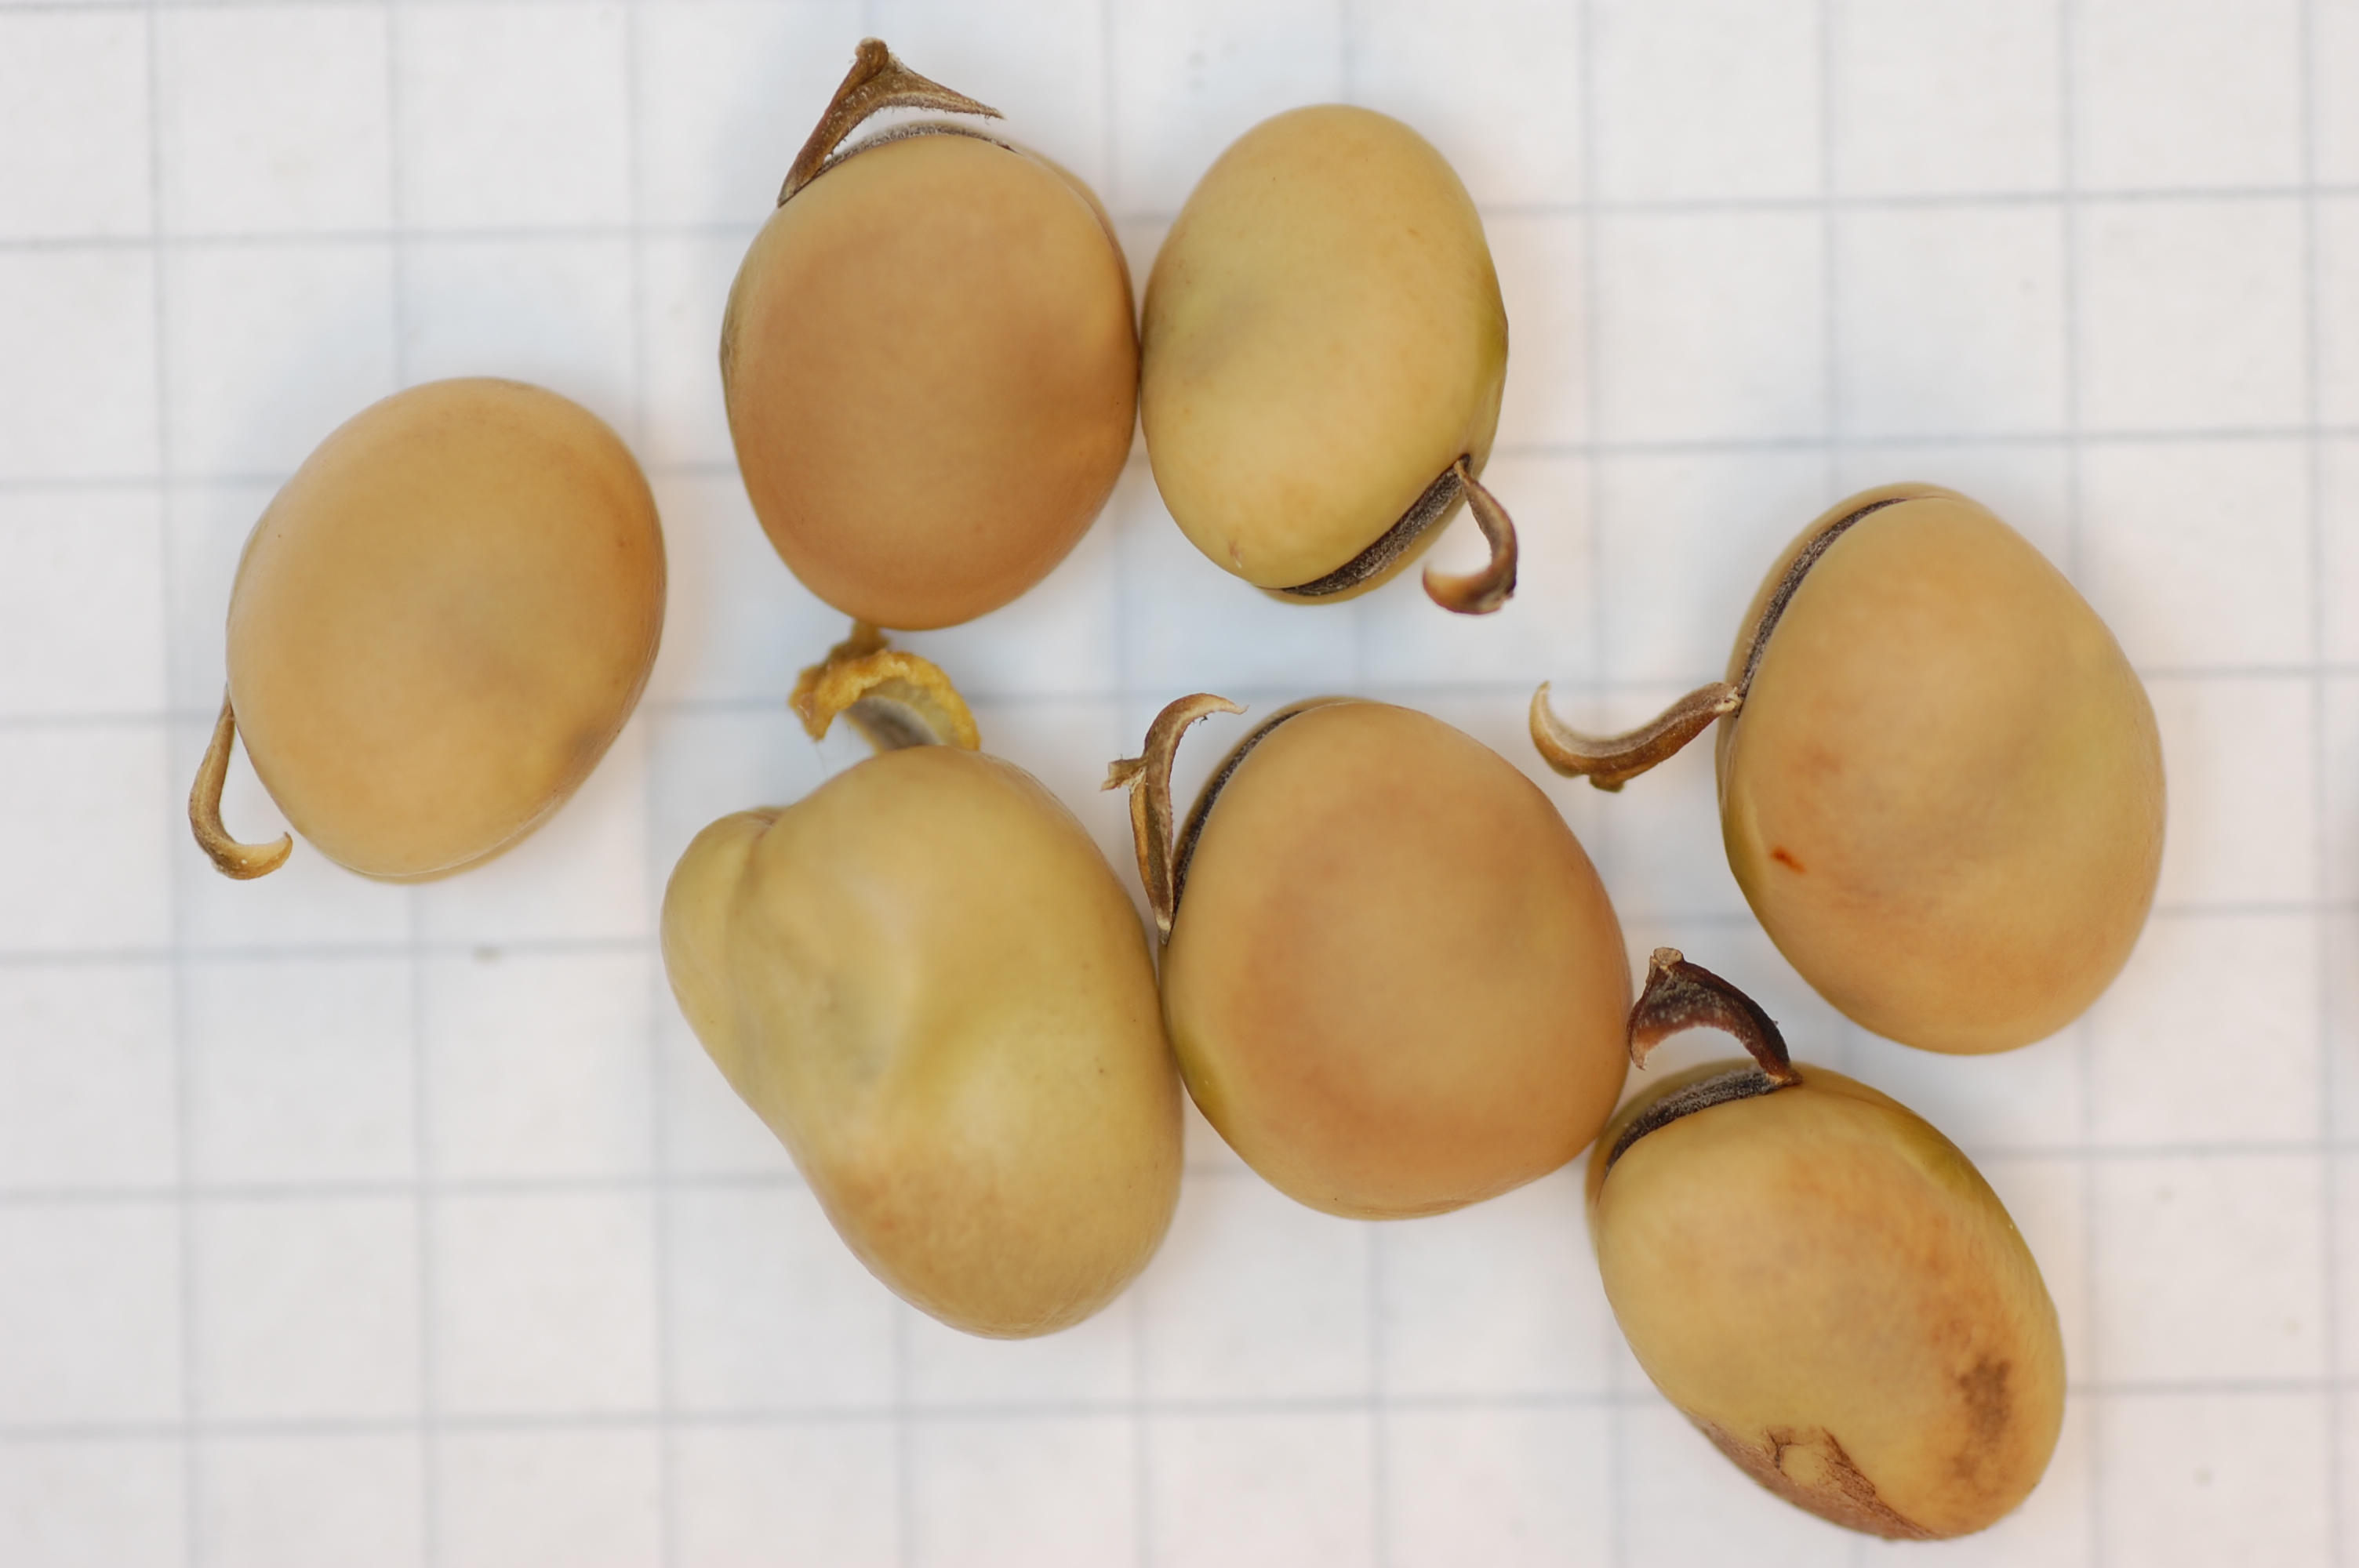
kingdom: Plantae
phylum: Tracheophyta
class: Magnoliopsida
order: Fabales
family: Fabaceae
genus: Vicia
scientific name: Vicia faba
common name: Broad bean
